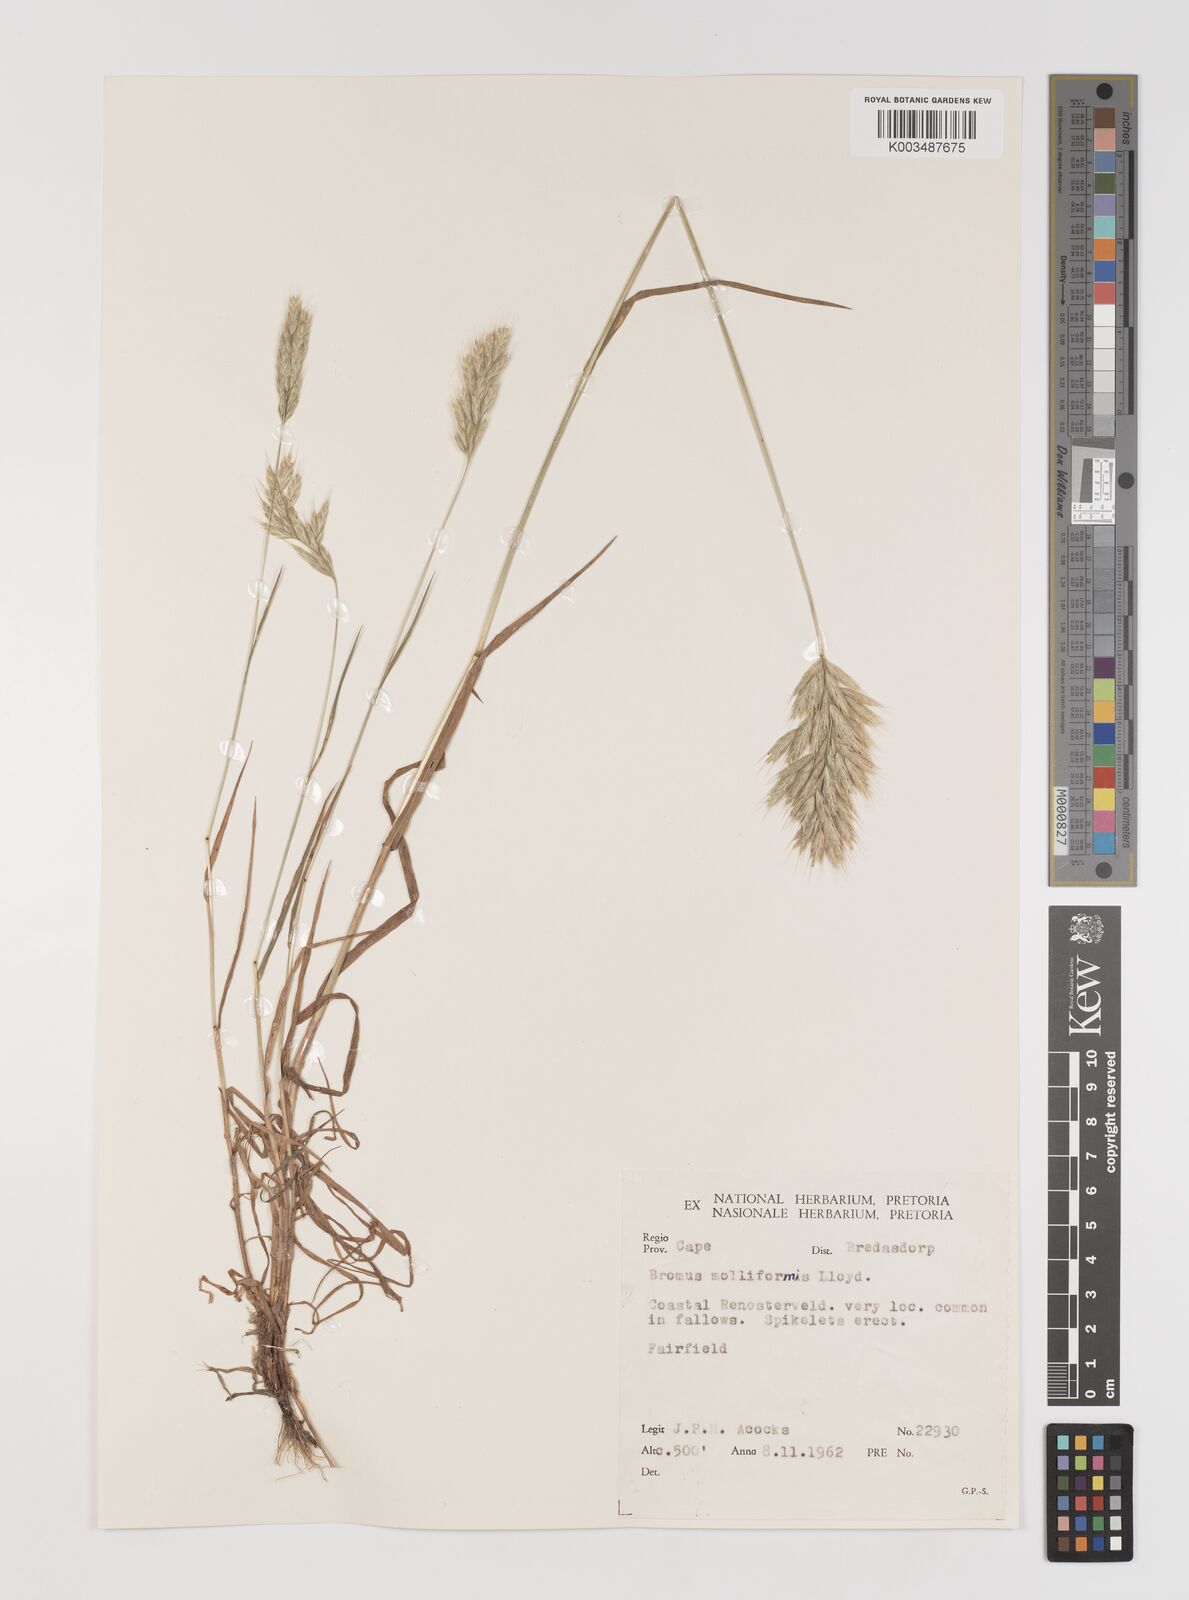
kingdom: Plantae
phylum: Tracheophyta
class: Liliopsida
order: Poales
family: Poaceae
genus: Bromus
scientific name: Bromus hordeaceus
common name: Soft brome
